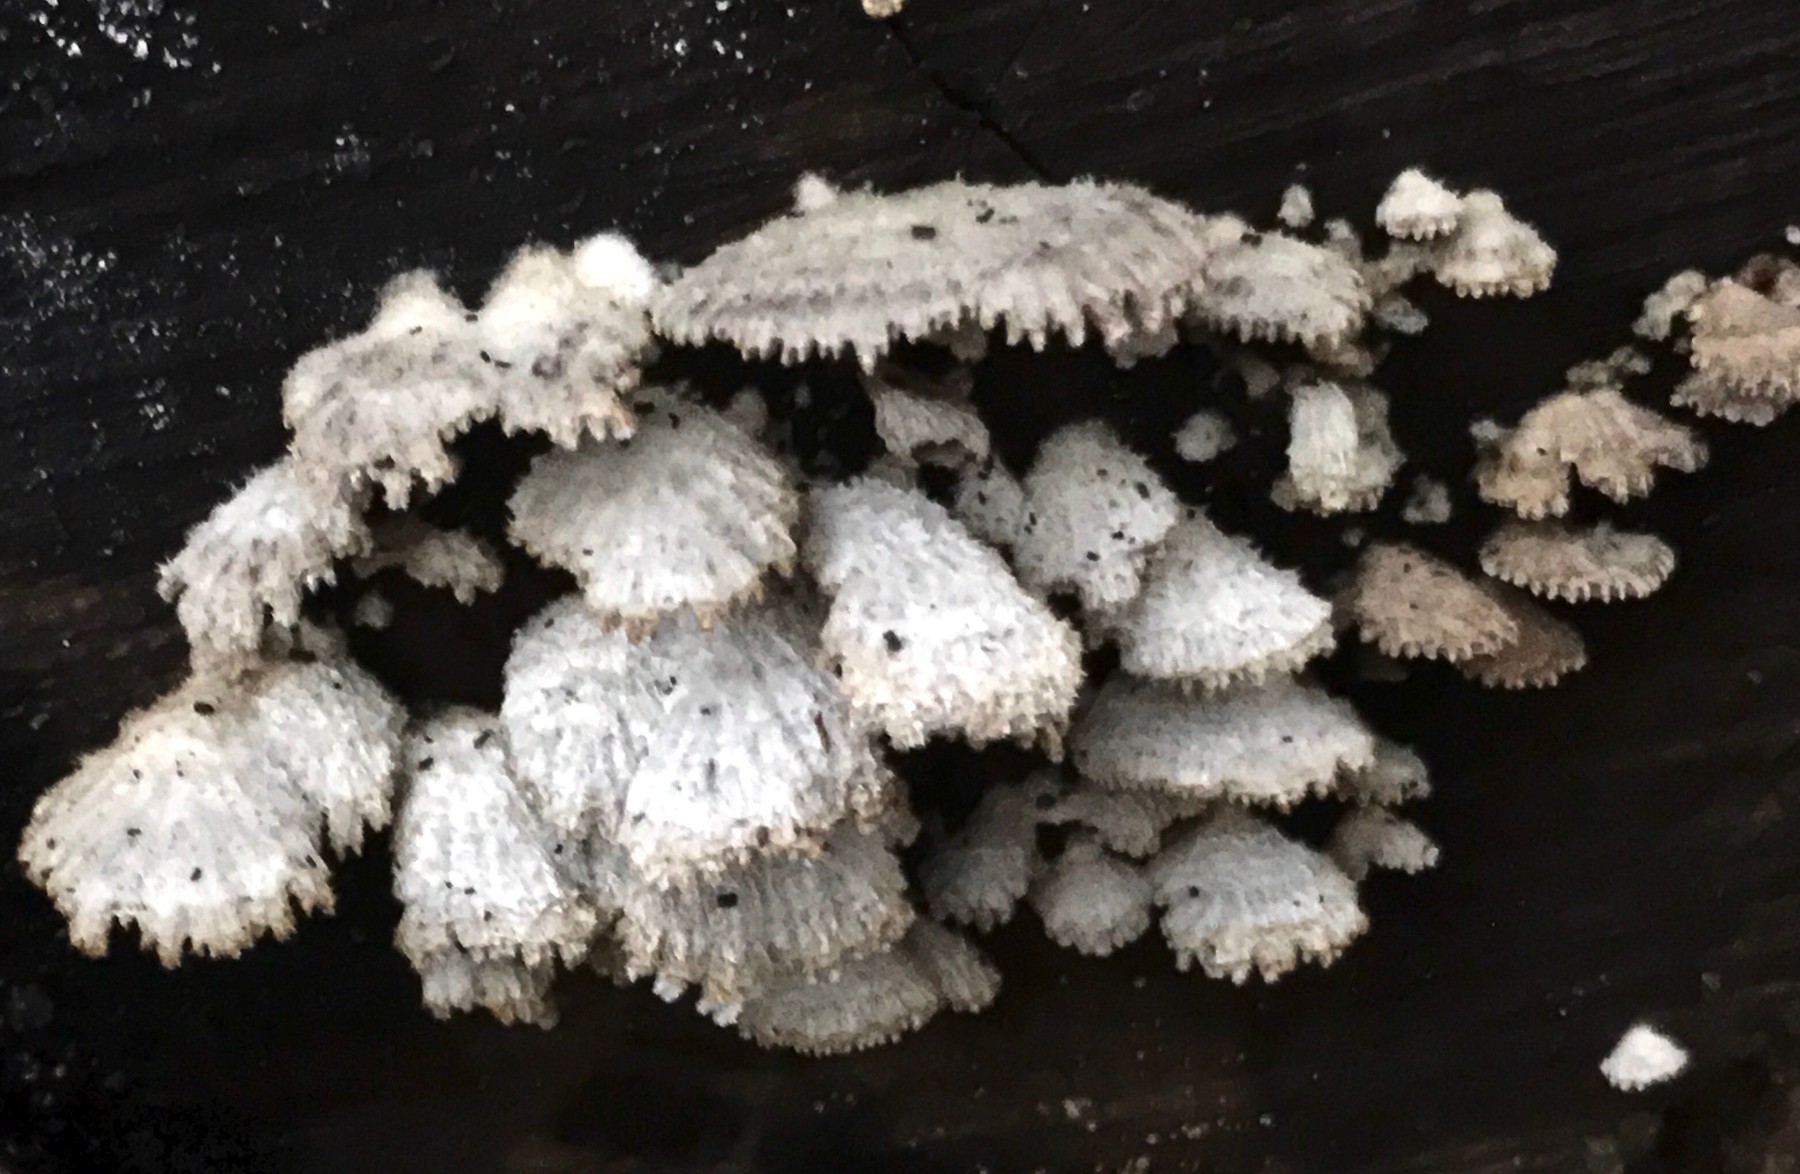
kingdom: Fungi
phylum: Basidiomycota
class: Agaricomycetes
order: Agaricales
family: Schizophyllaceae
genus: Schizophyllum
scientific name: Schizophyllum commune
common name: kløvblad
